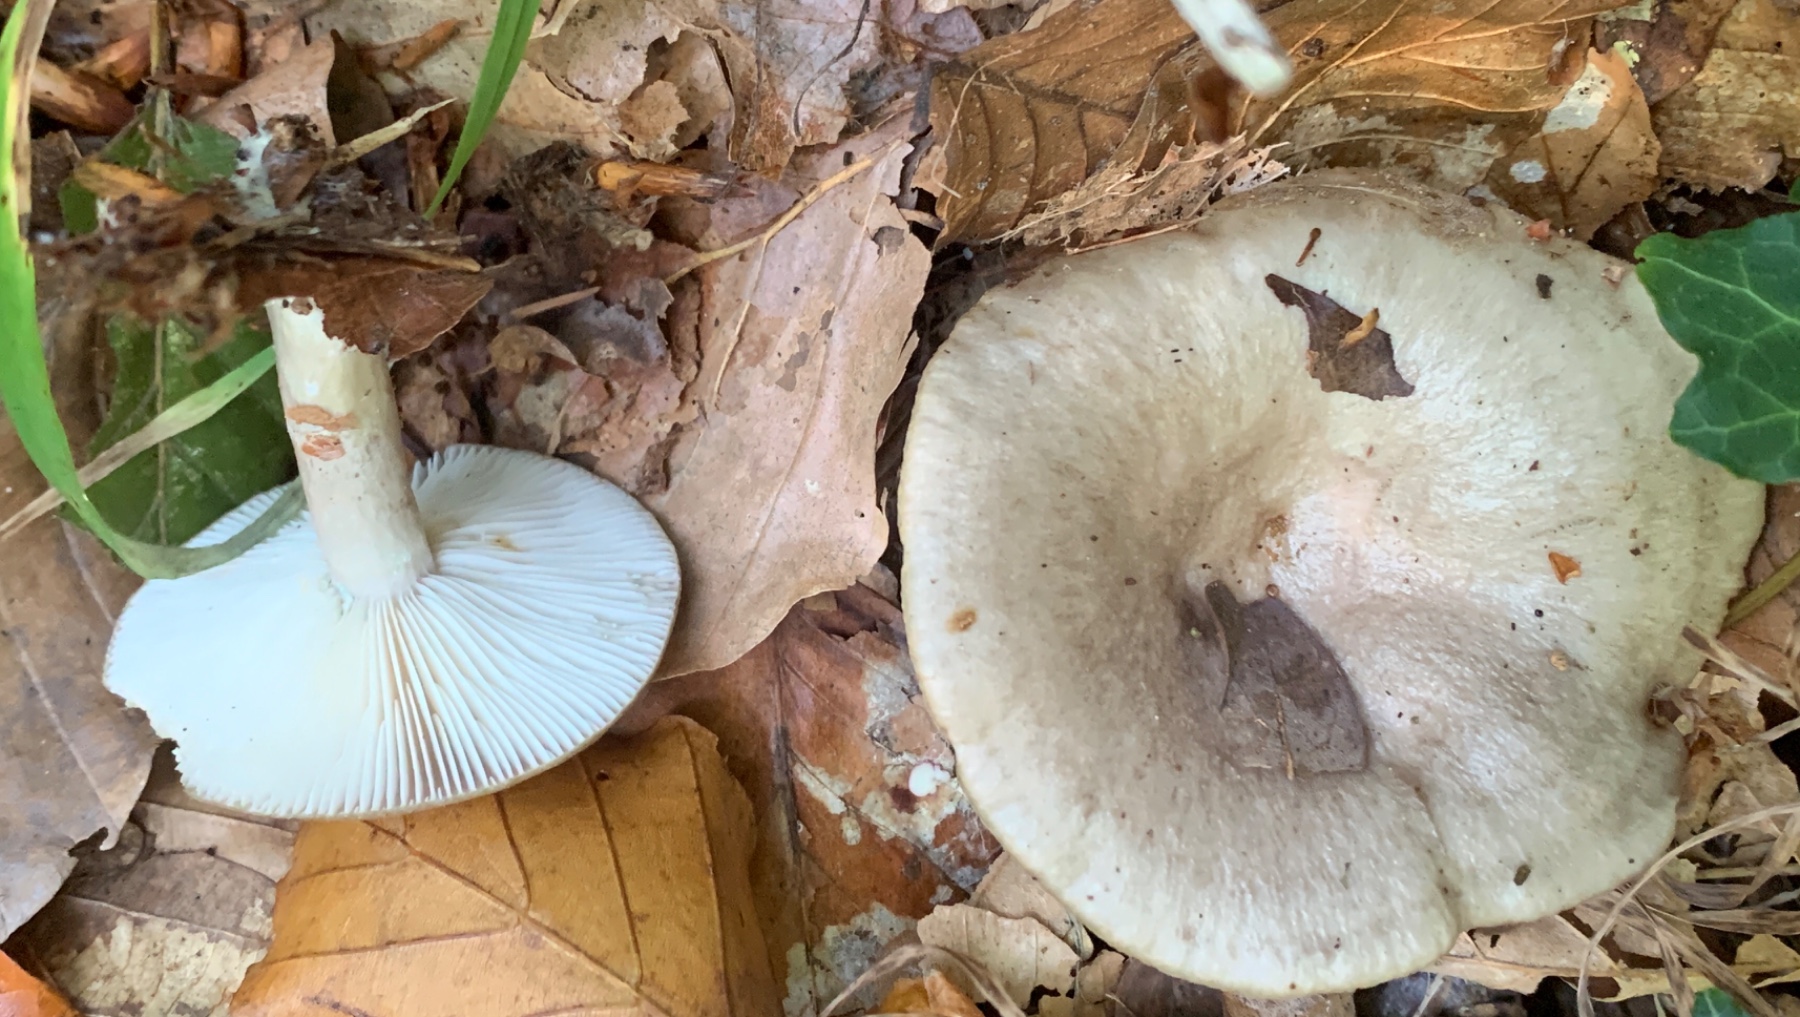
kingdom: Fungi
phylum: Basidiomycota
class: Agaricomycetes
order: Russulales
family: Russulaceae
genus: Lactarius
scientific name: Lactarius blennius
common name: dråbeplettet mælkehat
